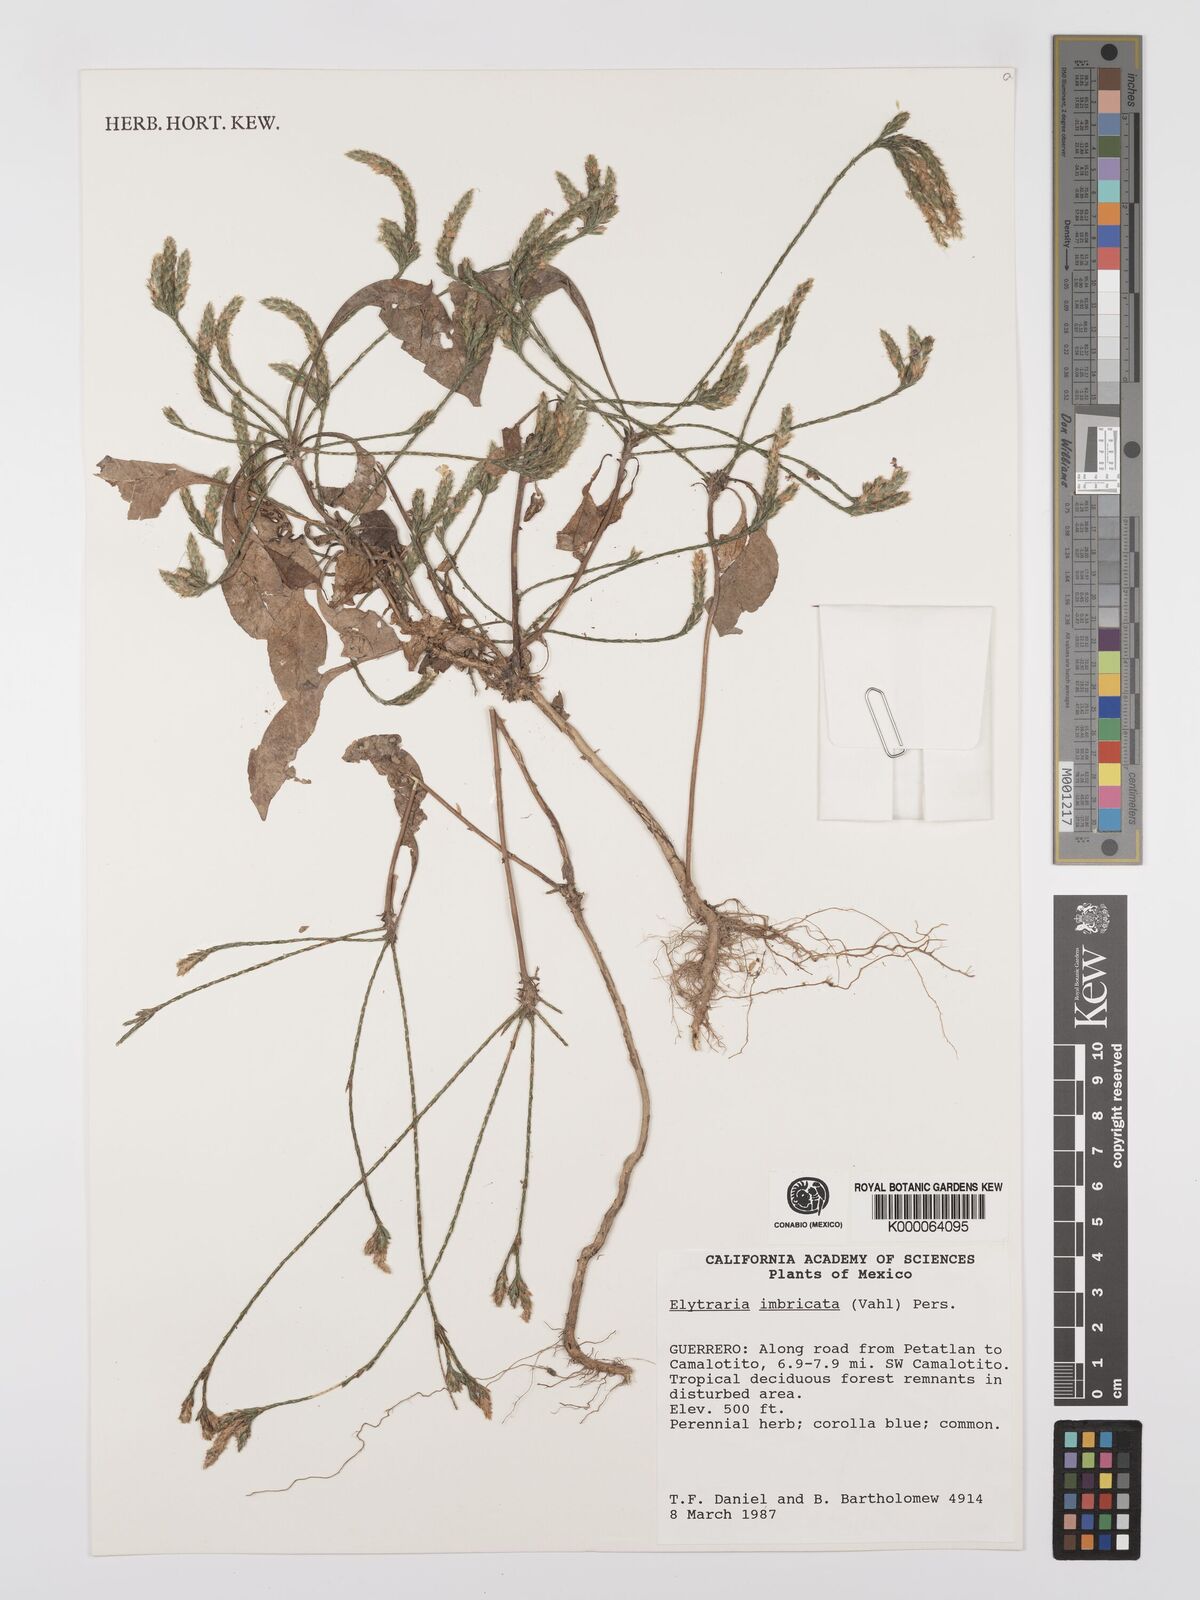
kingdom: Plantae
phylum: Tracheophyta
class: Magnoliopsida
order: Lamiales
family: Acanthaceae
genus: Elytraria
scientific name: Elytraria imbricata
